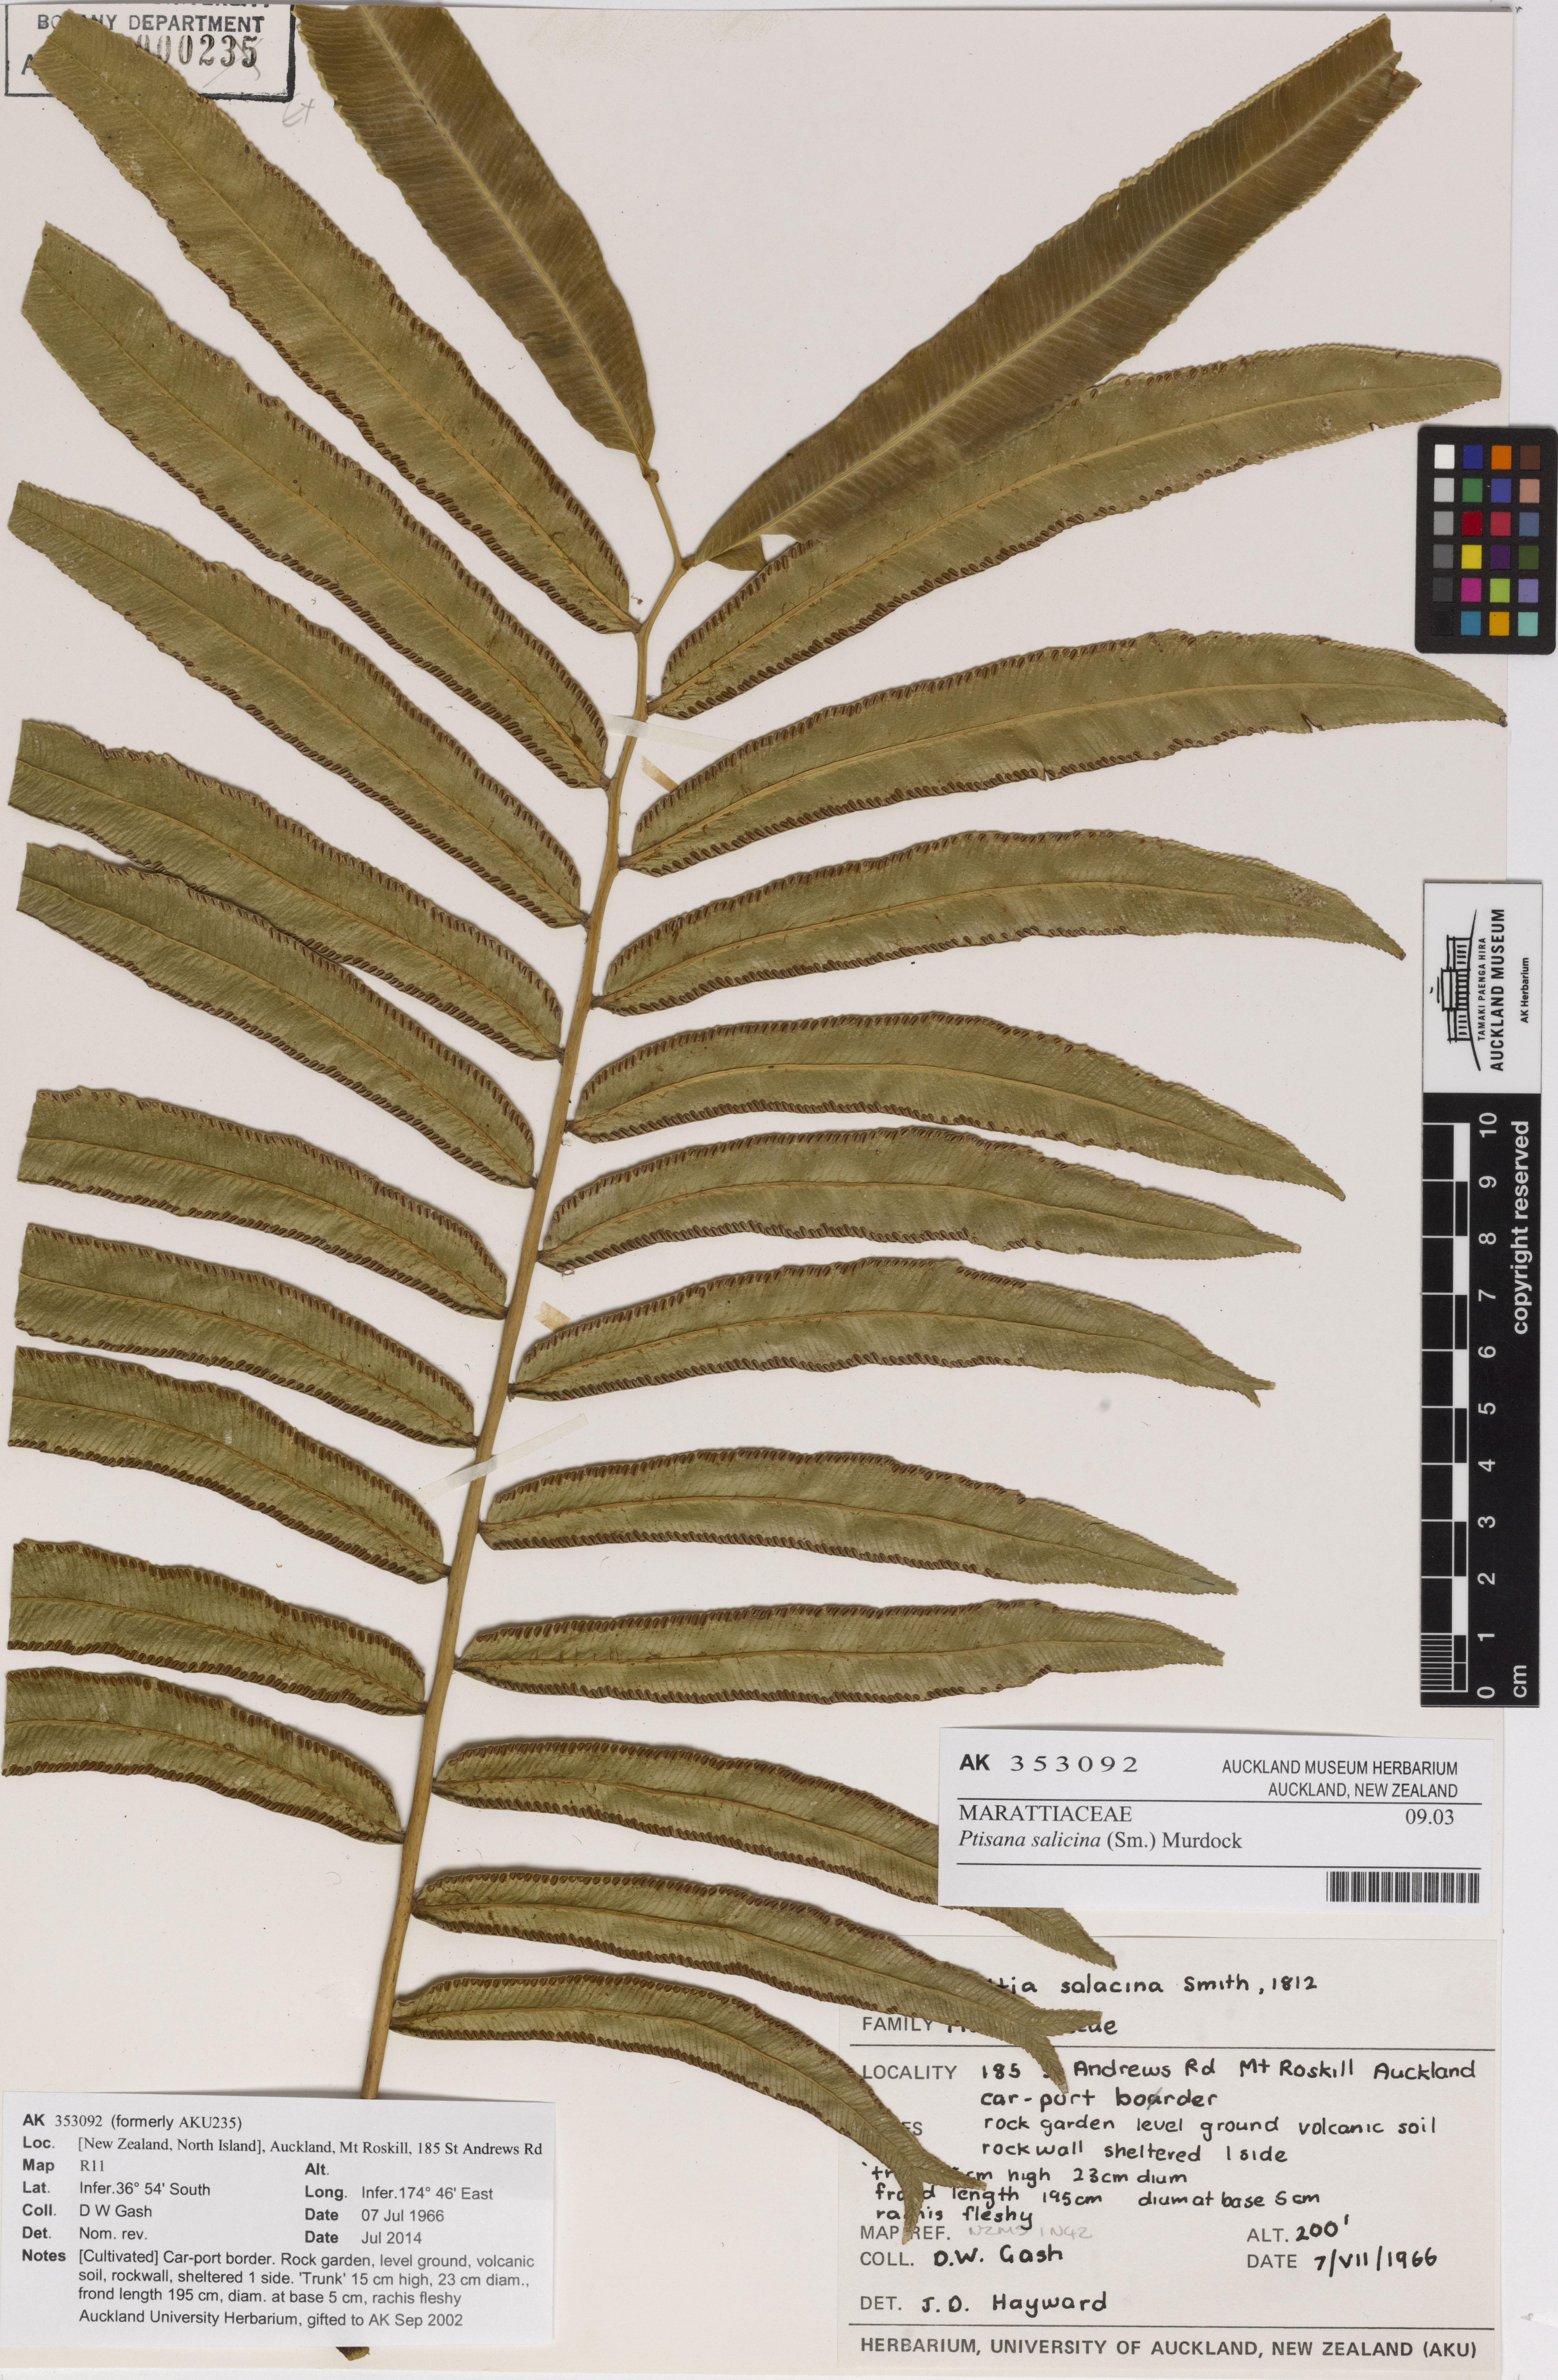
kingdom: Plantae
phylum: Tracheophyta
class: Polypodiopsida
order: Marattiales
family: Marattiaceae
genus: Ptisana
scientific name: Ptisana salicina
